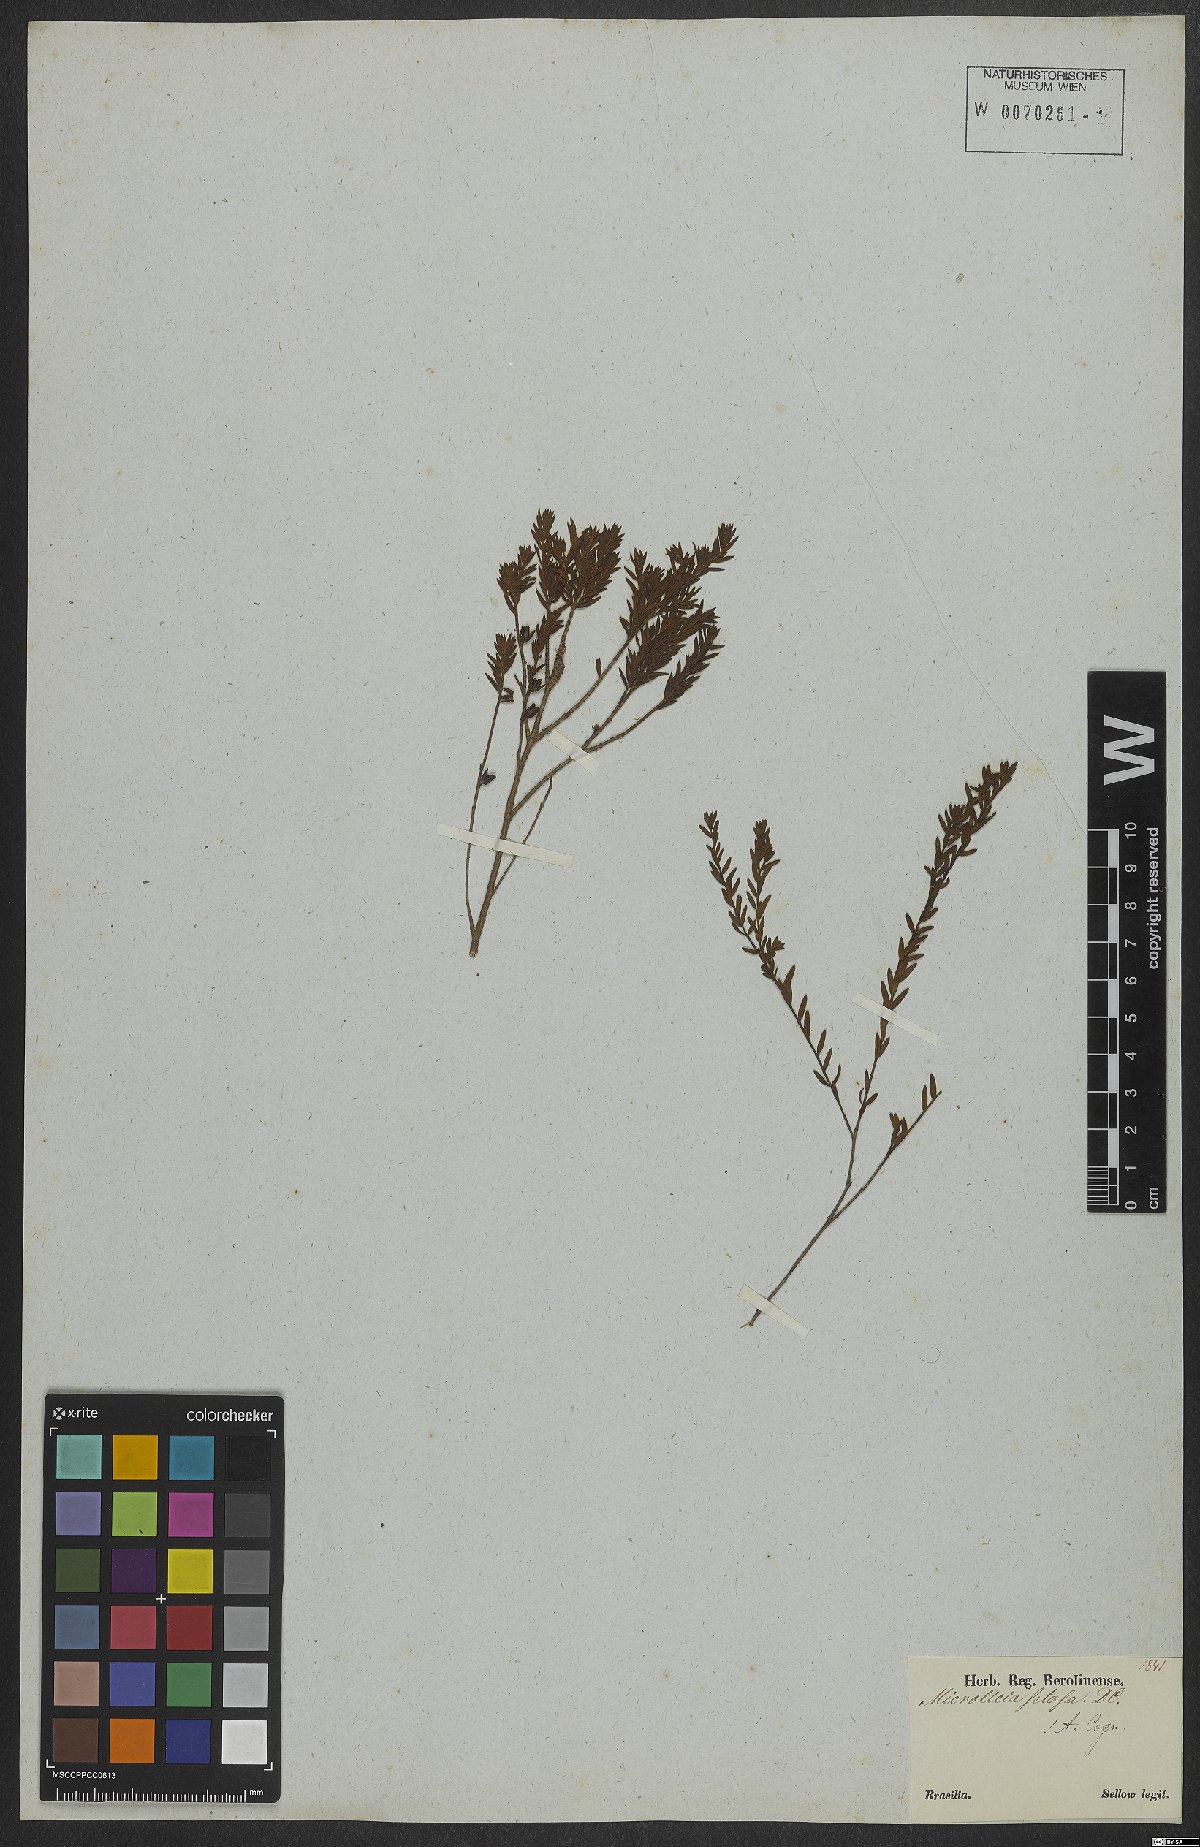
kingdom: Plantae
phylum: Tracheophyta
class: Magnoliopsida
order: Myrtales
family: Melastomataceae
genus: Microlicia
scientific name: Microlicia setosa
